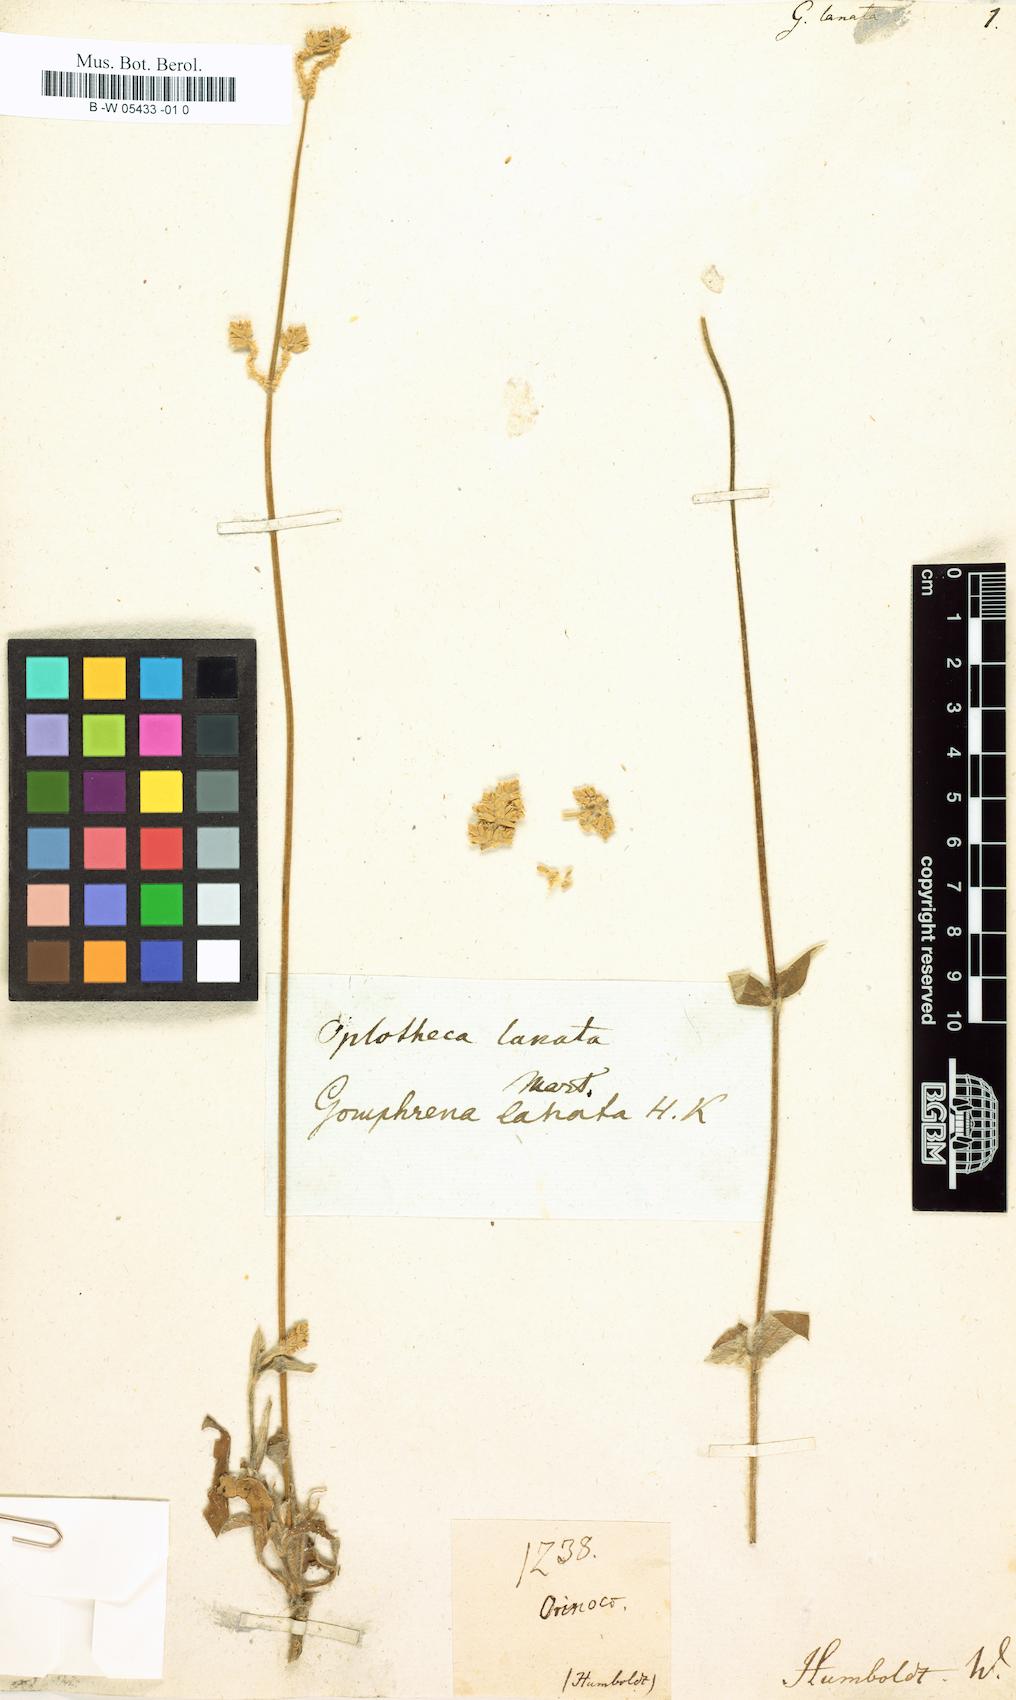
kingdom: Plantae
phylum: Tracheophyta
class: Magnoliopsida
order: Caryophyllales
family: Amaranthaceae
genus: Gomphrena
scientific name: Gomphrena lanata
